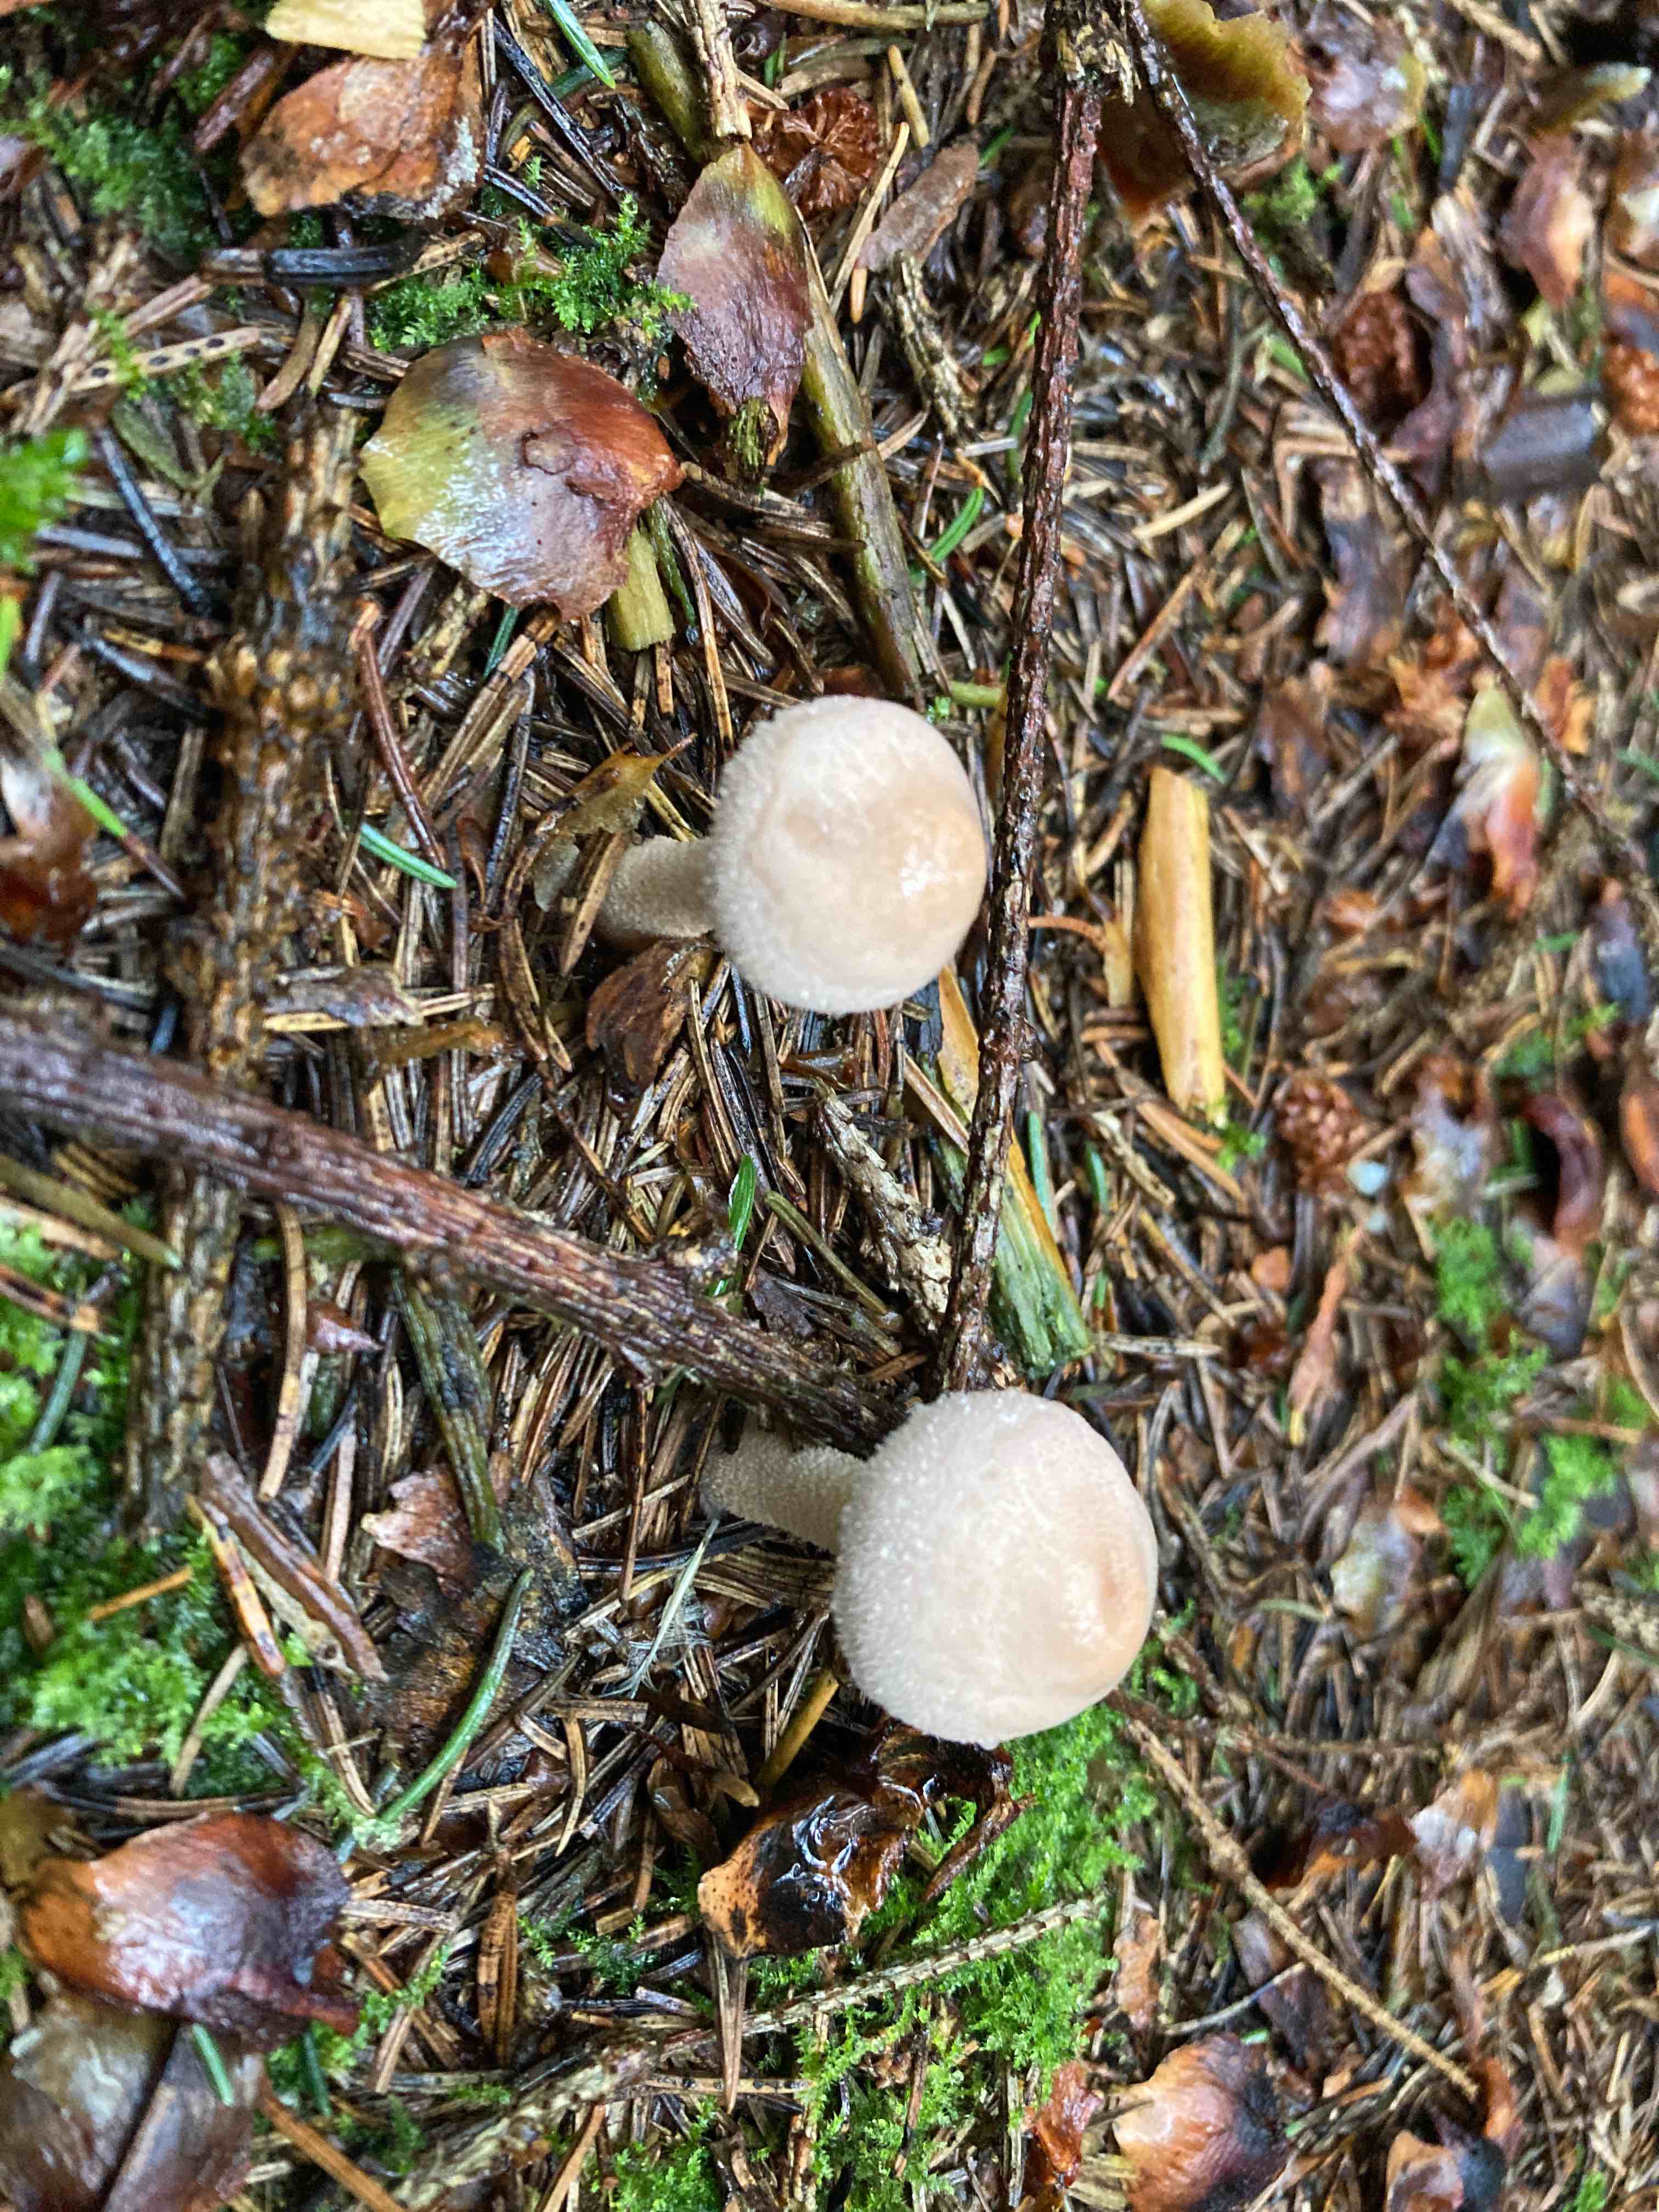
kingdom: Fungi
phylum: Basidiomycota
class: Agaricomycetes
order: Agaricales
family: Tricholomataceae
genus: Cystoderma
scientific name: Cystoderma carcharias
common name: rødgrå grynhat
